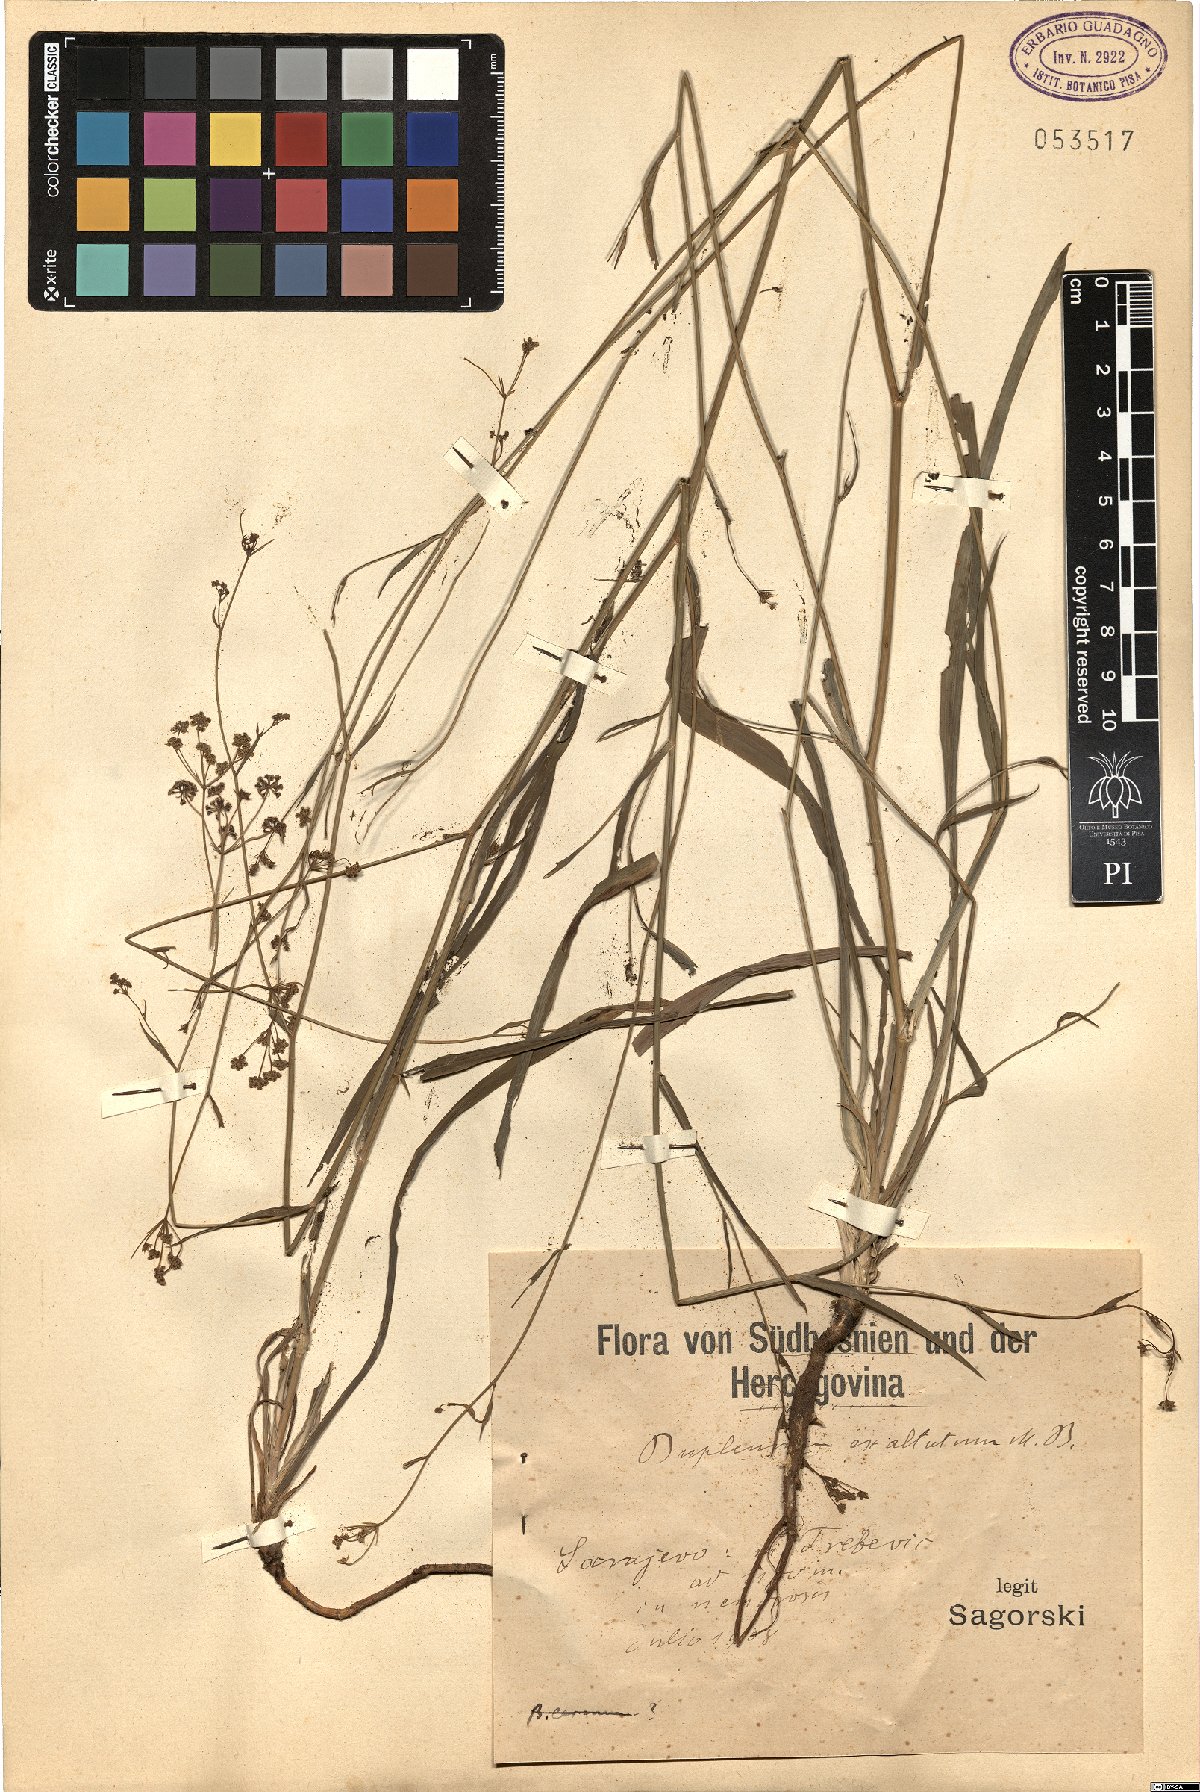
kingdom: Plantae
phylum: Tracheophyta
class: Magnoliopsida
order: Apiales
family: Apiaceae
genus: Bupleurum
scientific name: Bupleurum exaltatum
